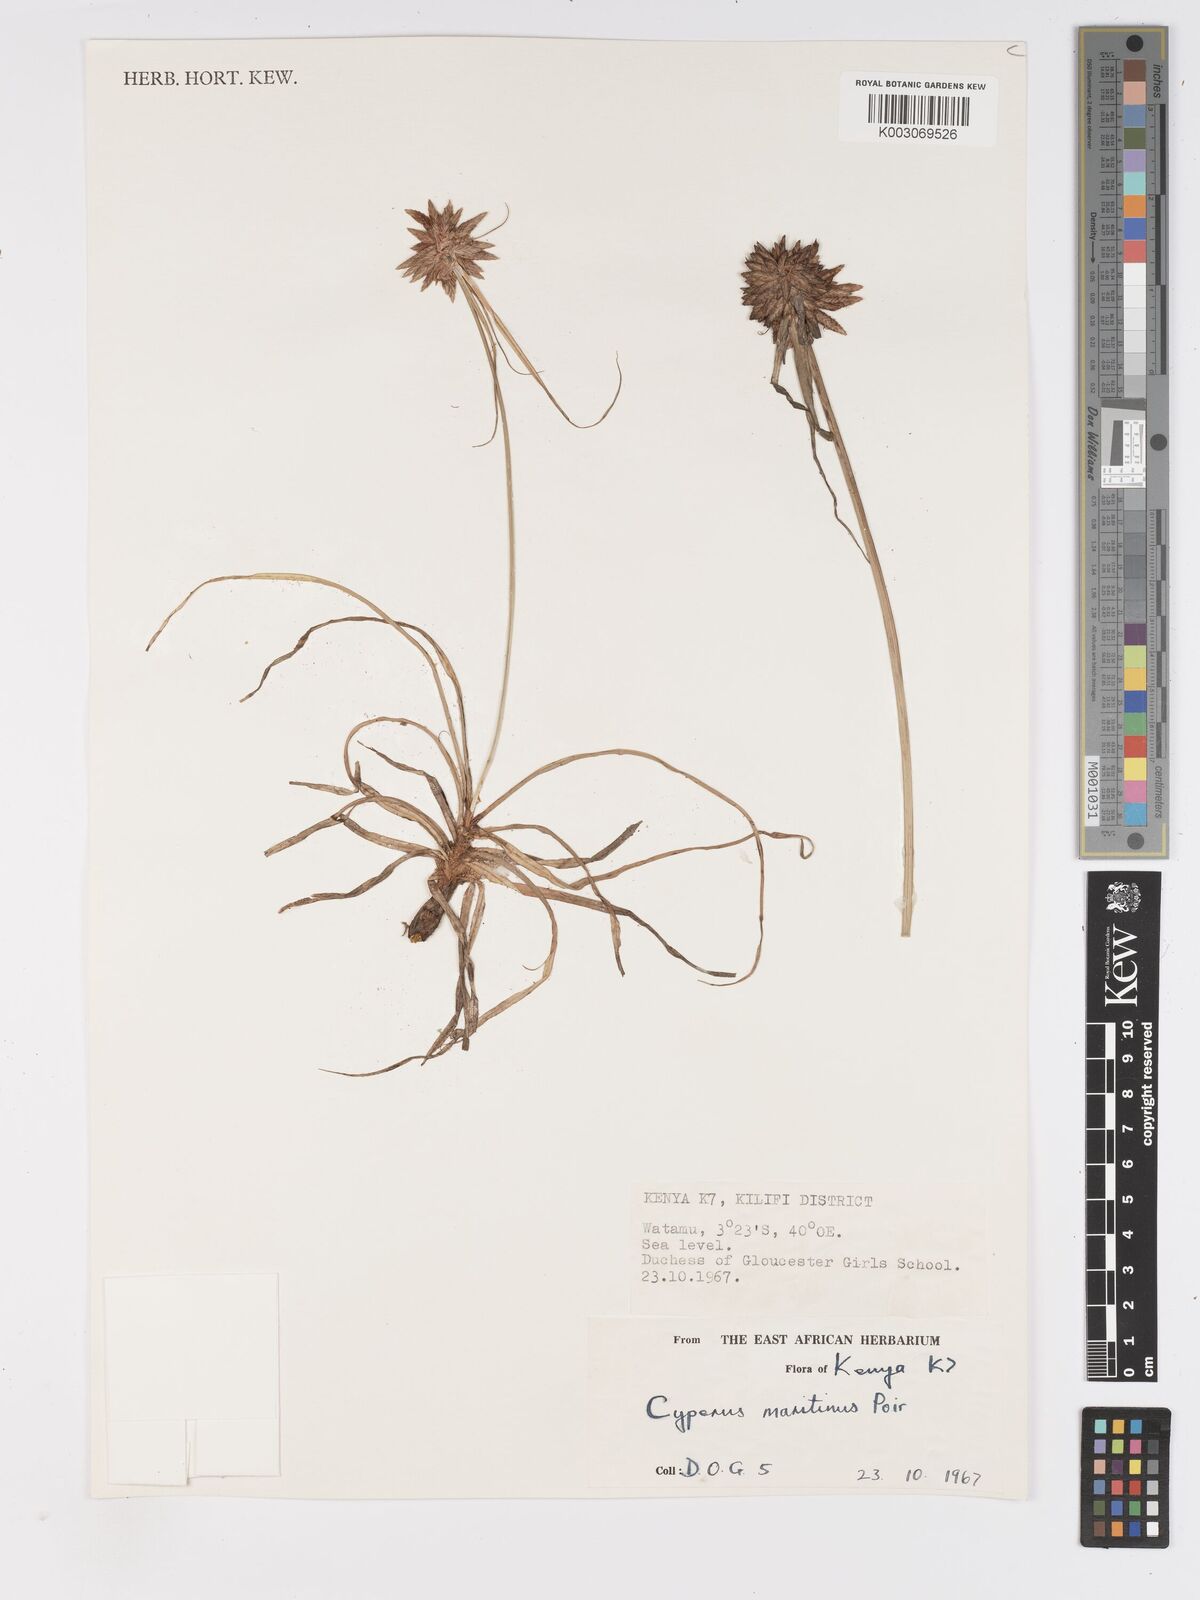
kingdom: Plantae
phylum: Tracheophyta
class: Liliopsida
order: Poales
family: Cyperaceae
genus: Cyperus
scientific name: Cyperus crassipes
